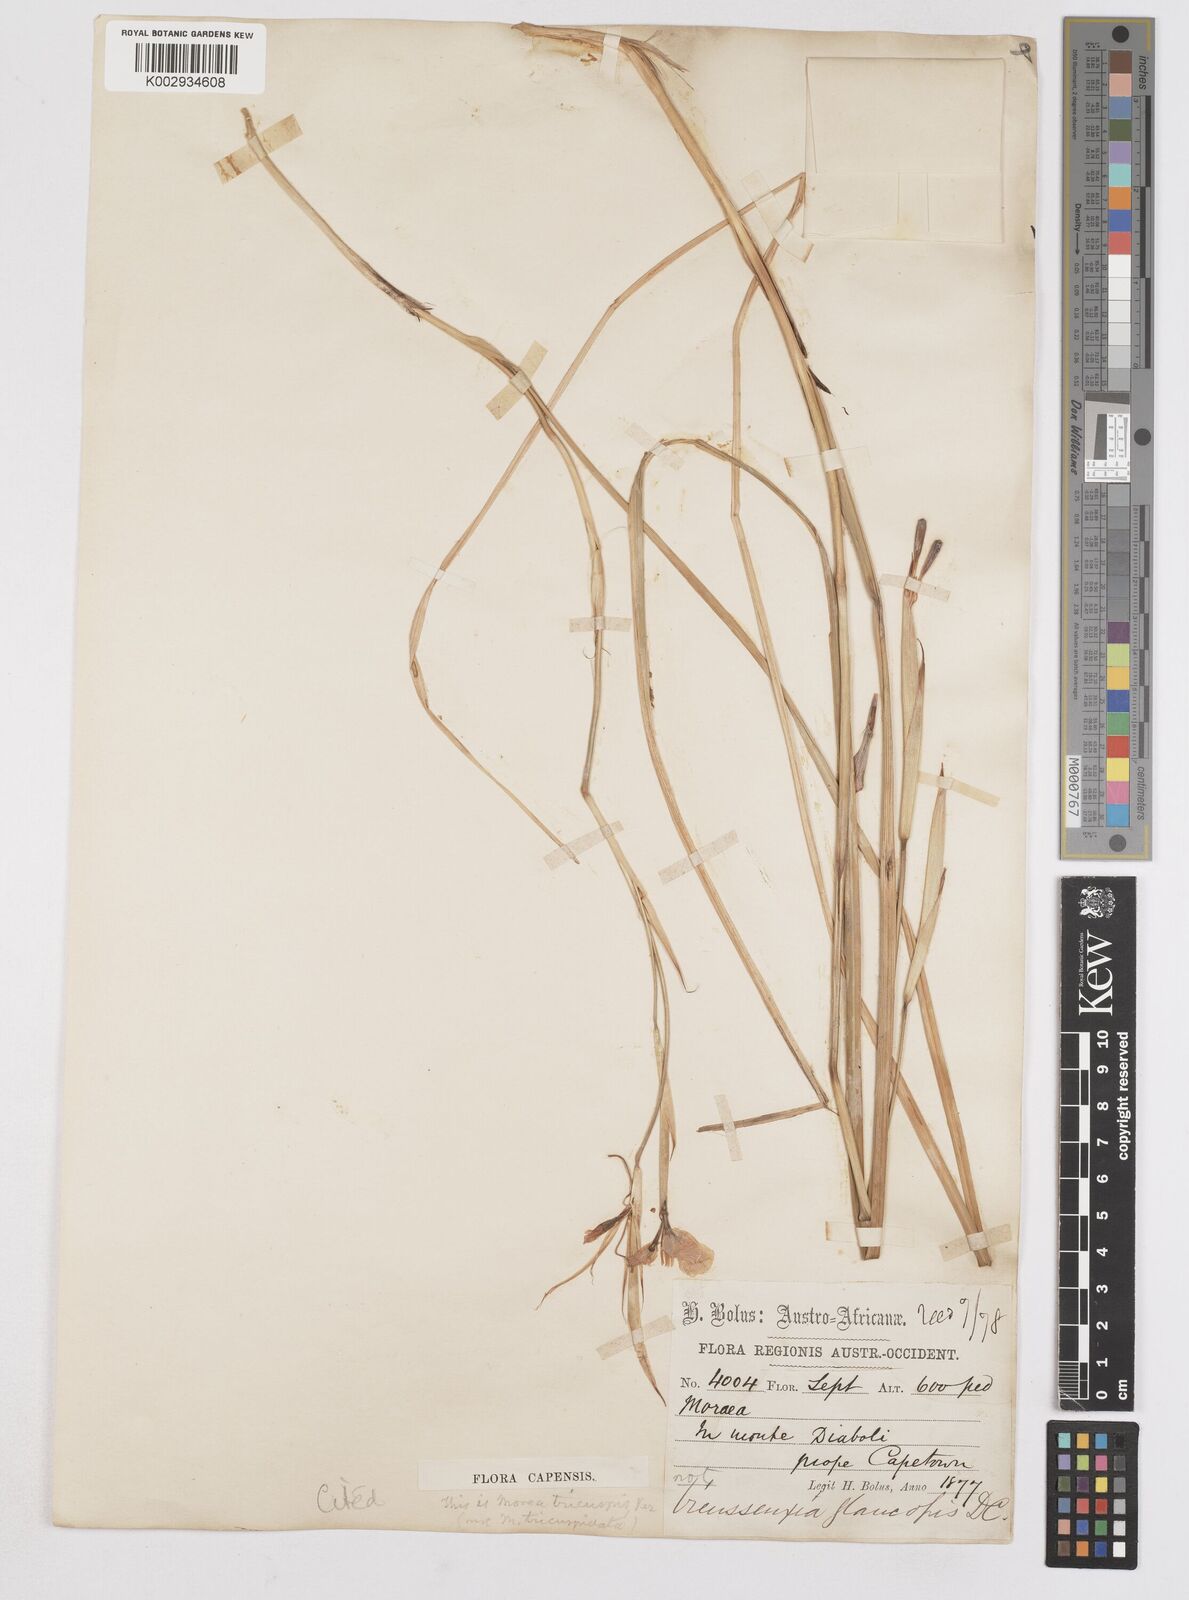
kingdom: Plantae
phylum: Tracheophyta
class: Liliopsida
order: Asparagales
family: Iridaceae
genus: Moraea
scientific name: Moraea tricuspidata
